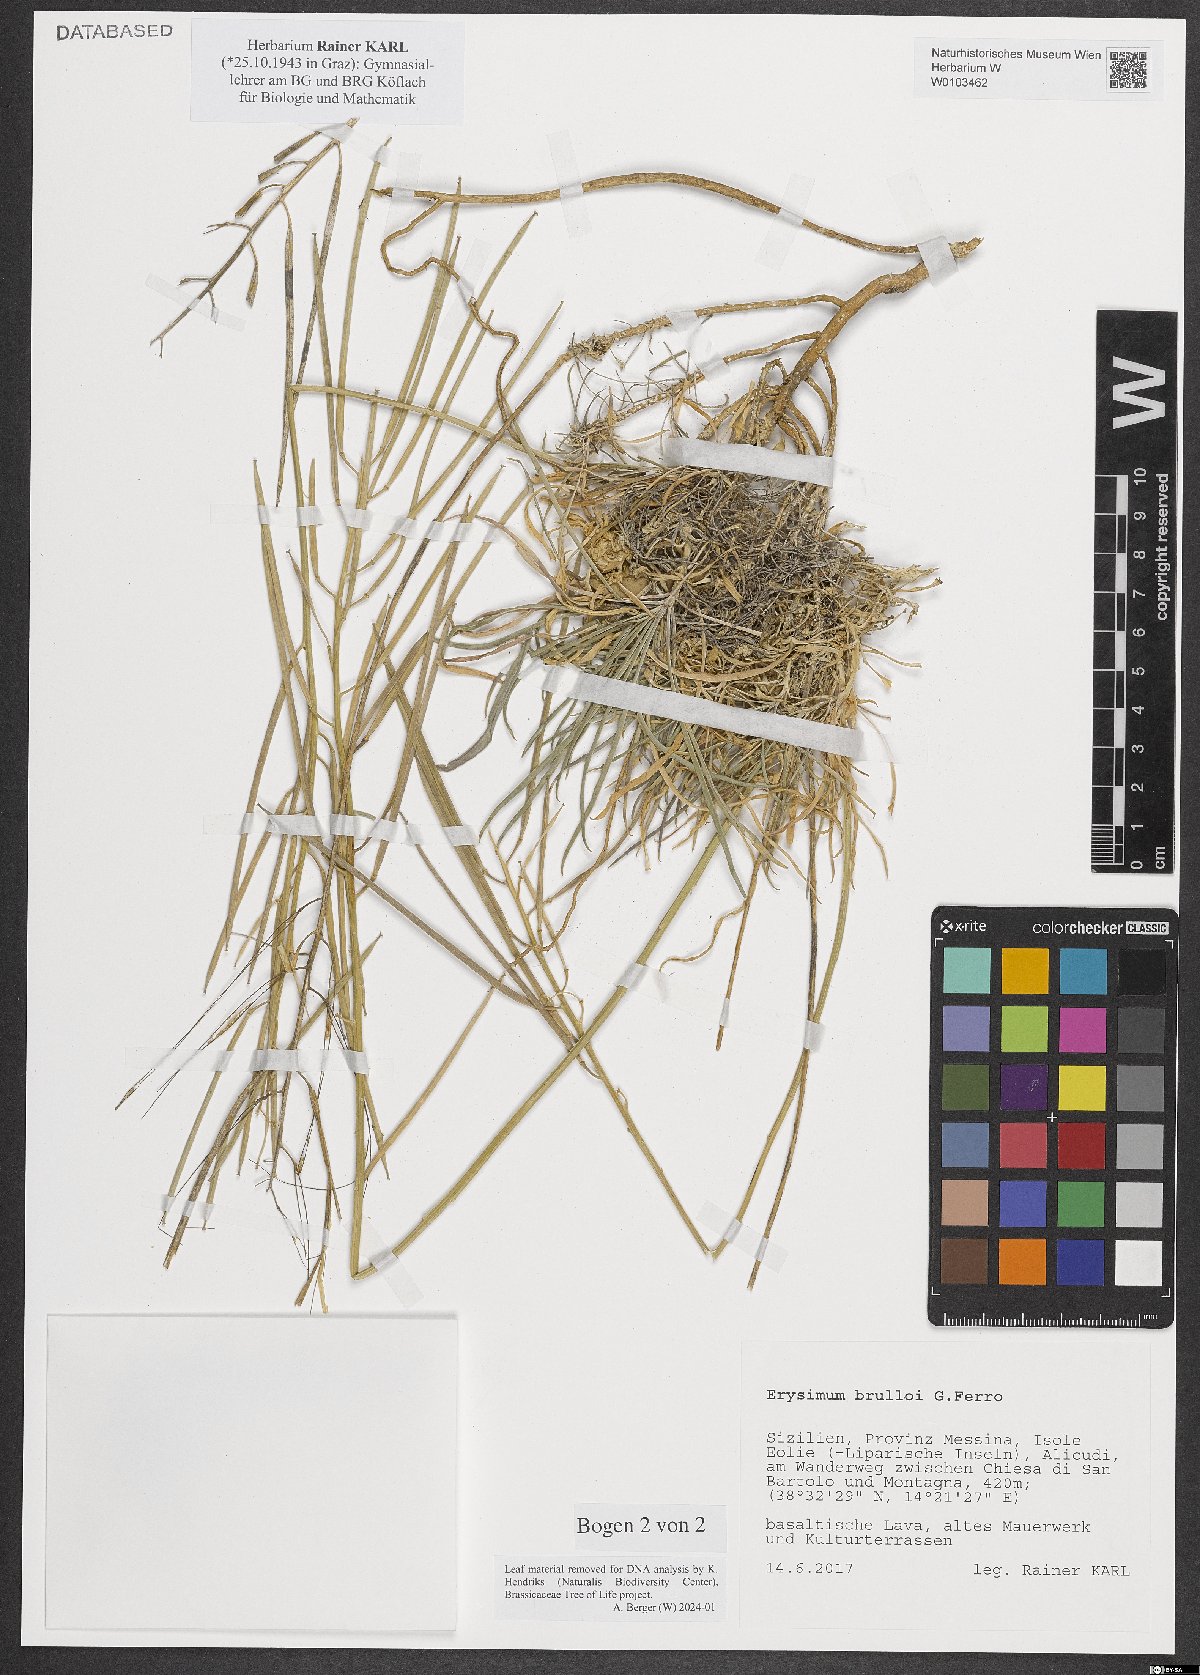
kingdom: Plantae
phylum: Tracheophyta
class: Magnoliopsida
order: Brassicales
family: Brassicaceae
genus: Erysimum
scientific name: Erysimum brulloi
